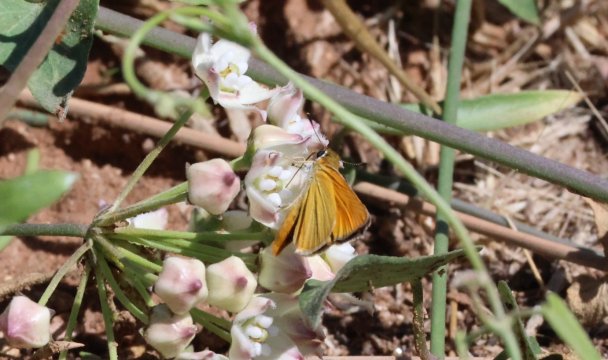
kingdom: Animalia
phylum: Arthropoda
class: Insecta
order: Lepidoptera
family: Hesperiidae
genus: Copaeodes
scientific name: Copaeodes aurantiaca
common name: Orange Skipperling
